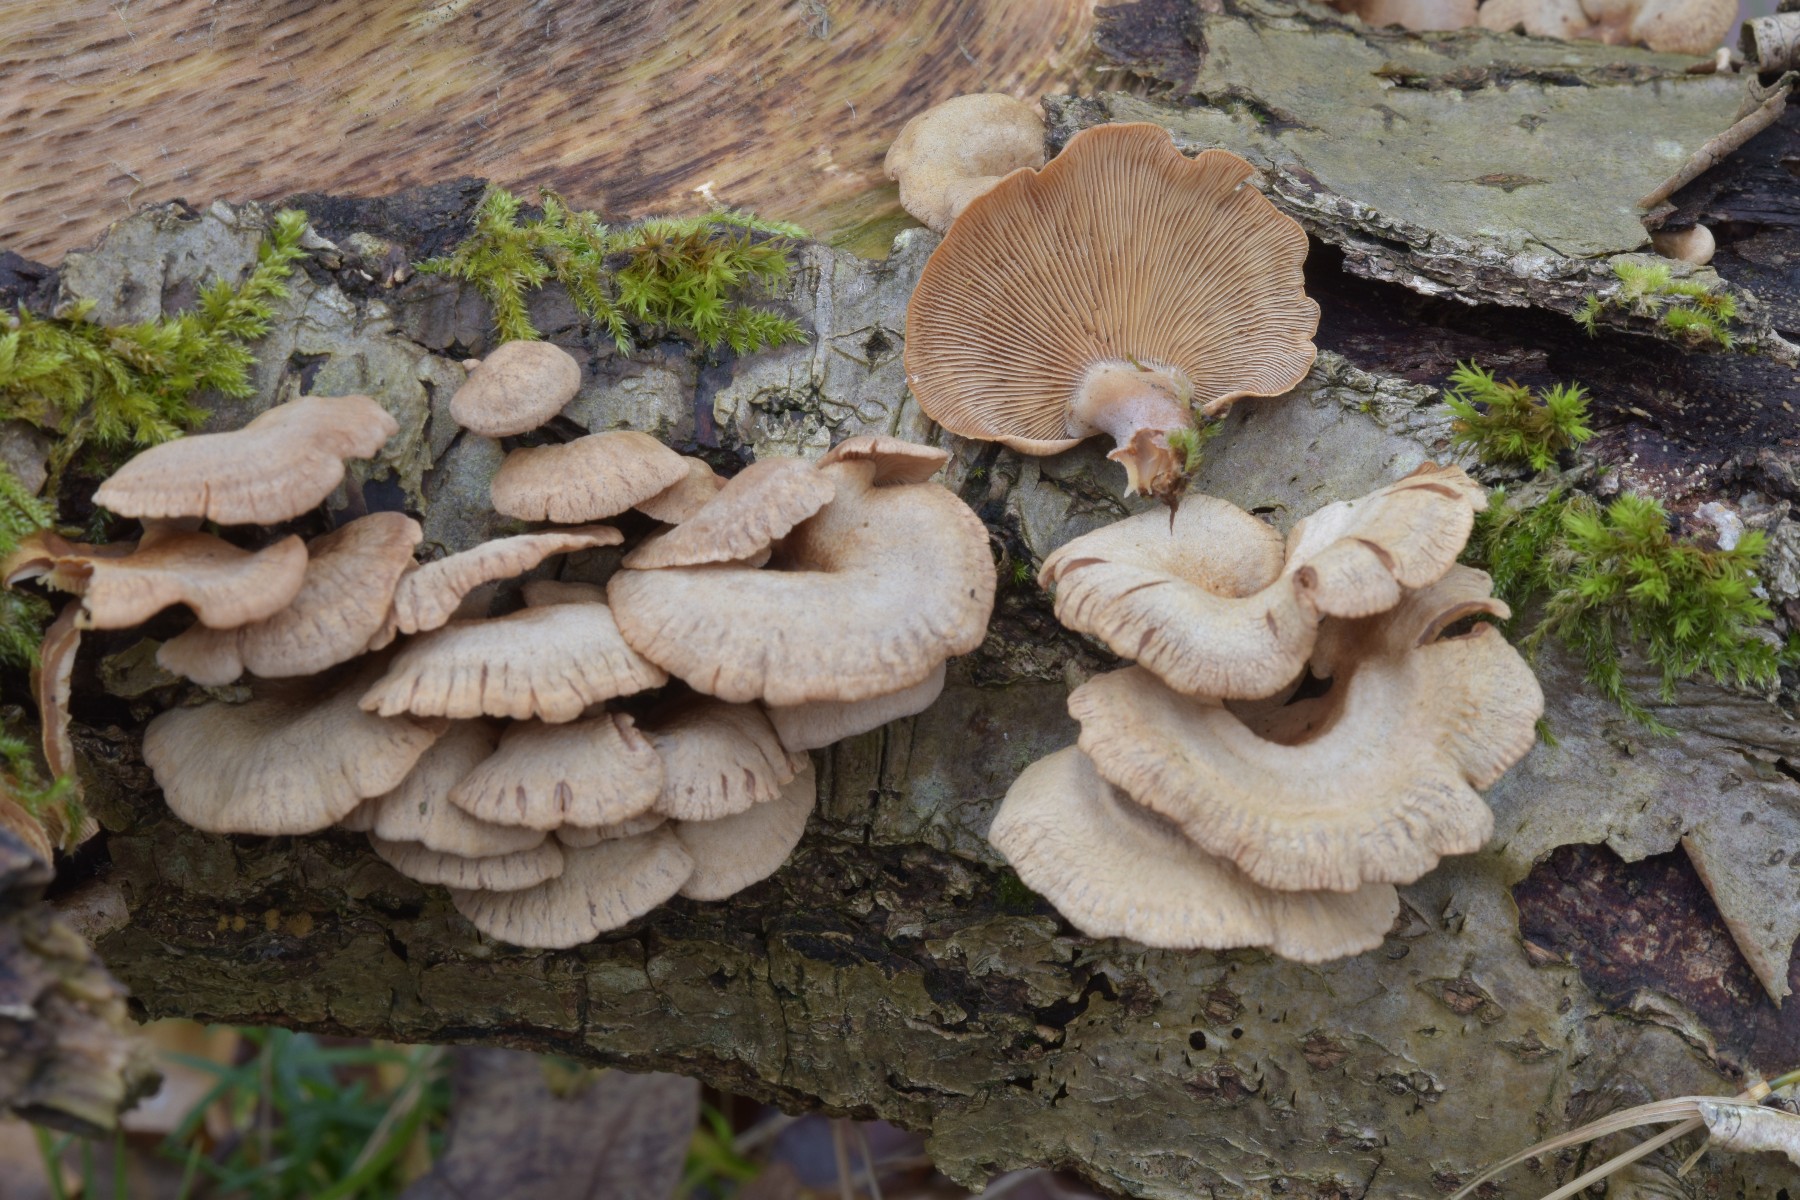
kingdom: Fungi
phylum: Basidiomycota
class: Agaricomycetes
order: Agaricales
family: Mycenaceae
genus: Panellus
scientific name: Panellus stipticus
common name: kliddet epaulethat
